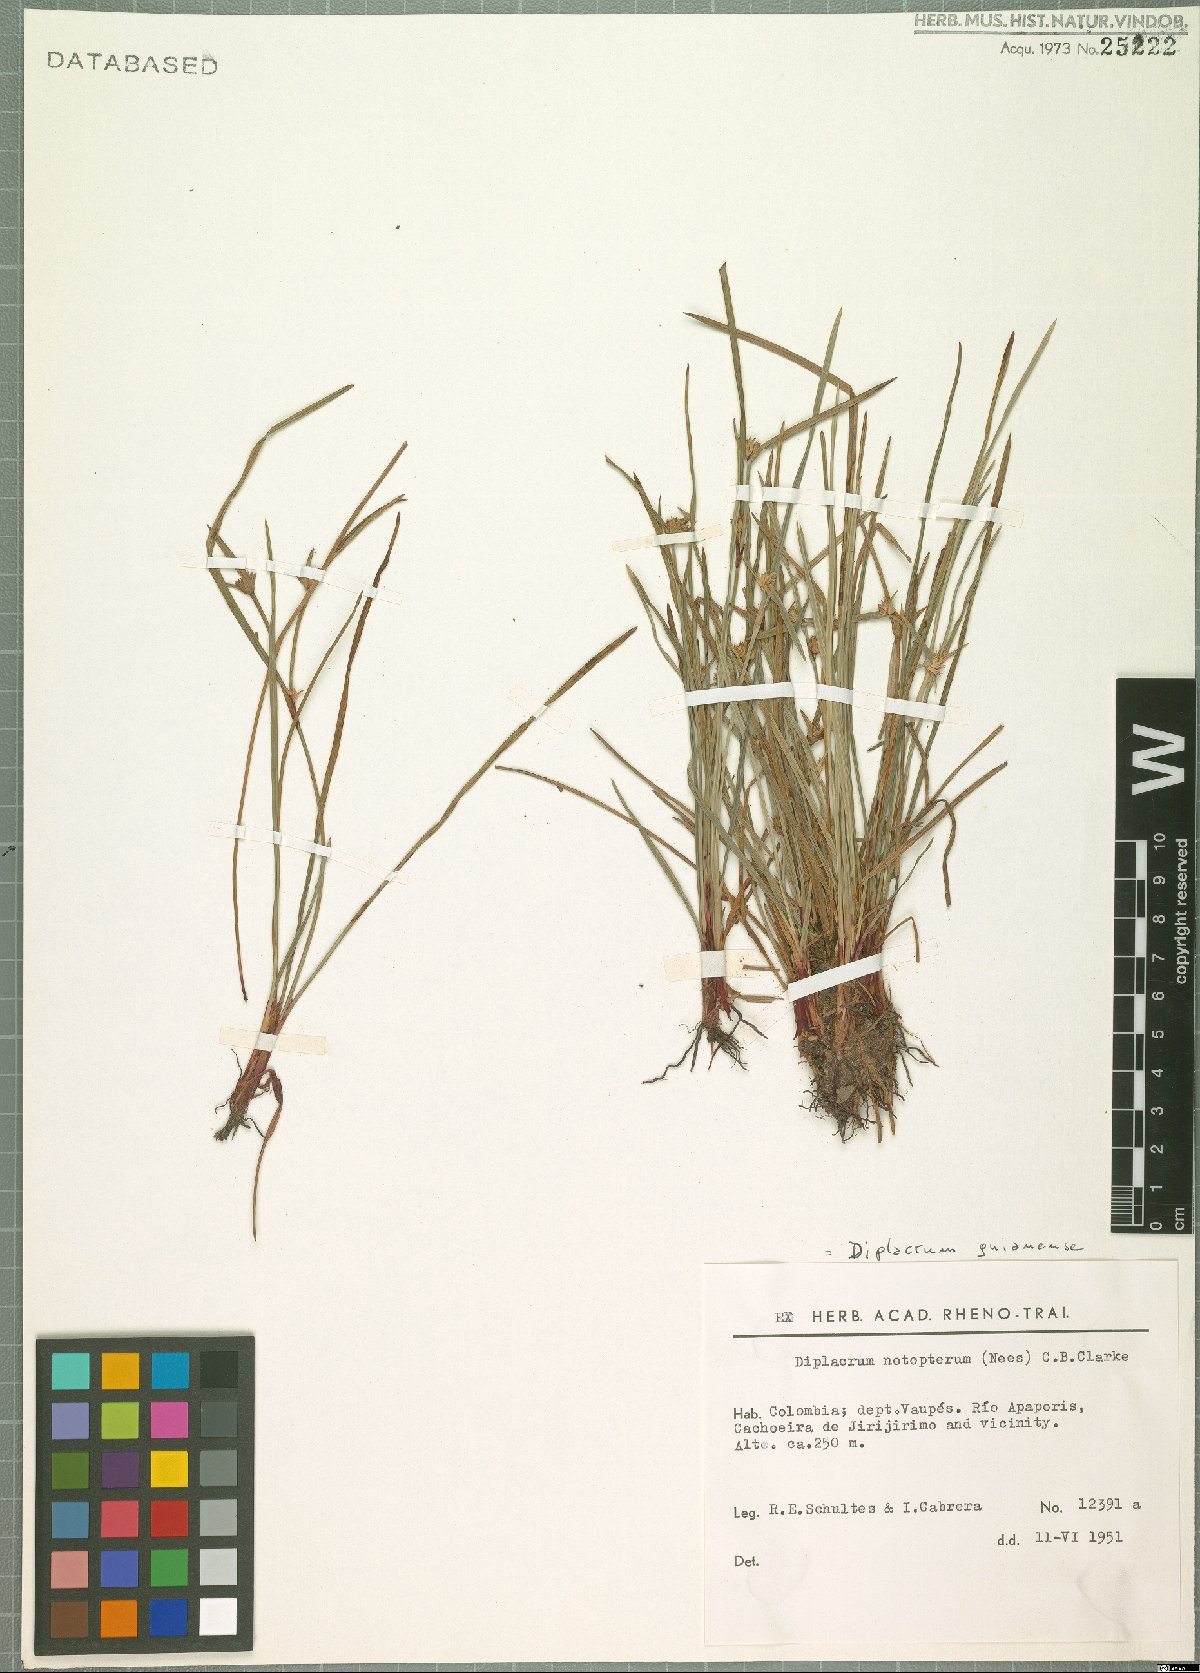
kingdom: Plantae
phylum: Tracheophyta
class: Liliopsida
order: Poales
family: Cyperaceae
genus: Diplacrum
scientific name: Diplacrum guianense
